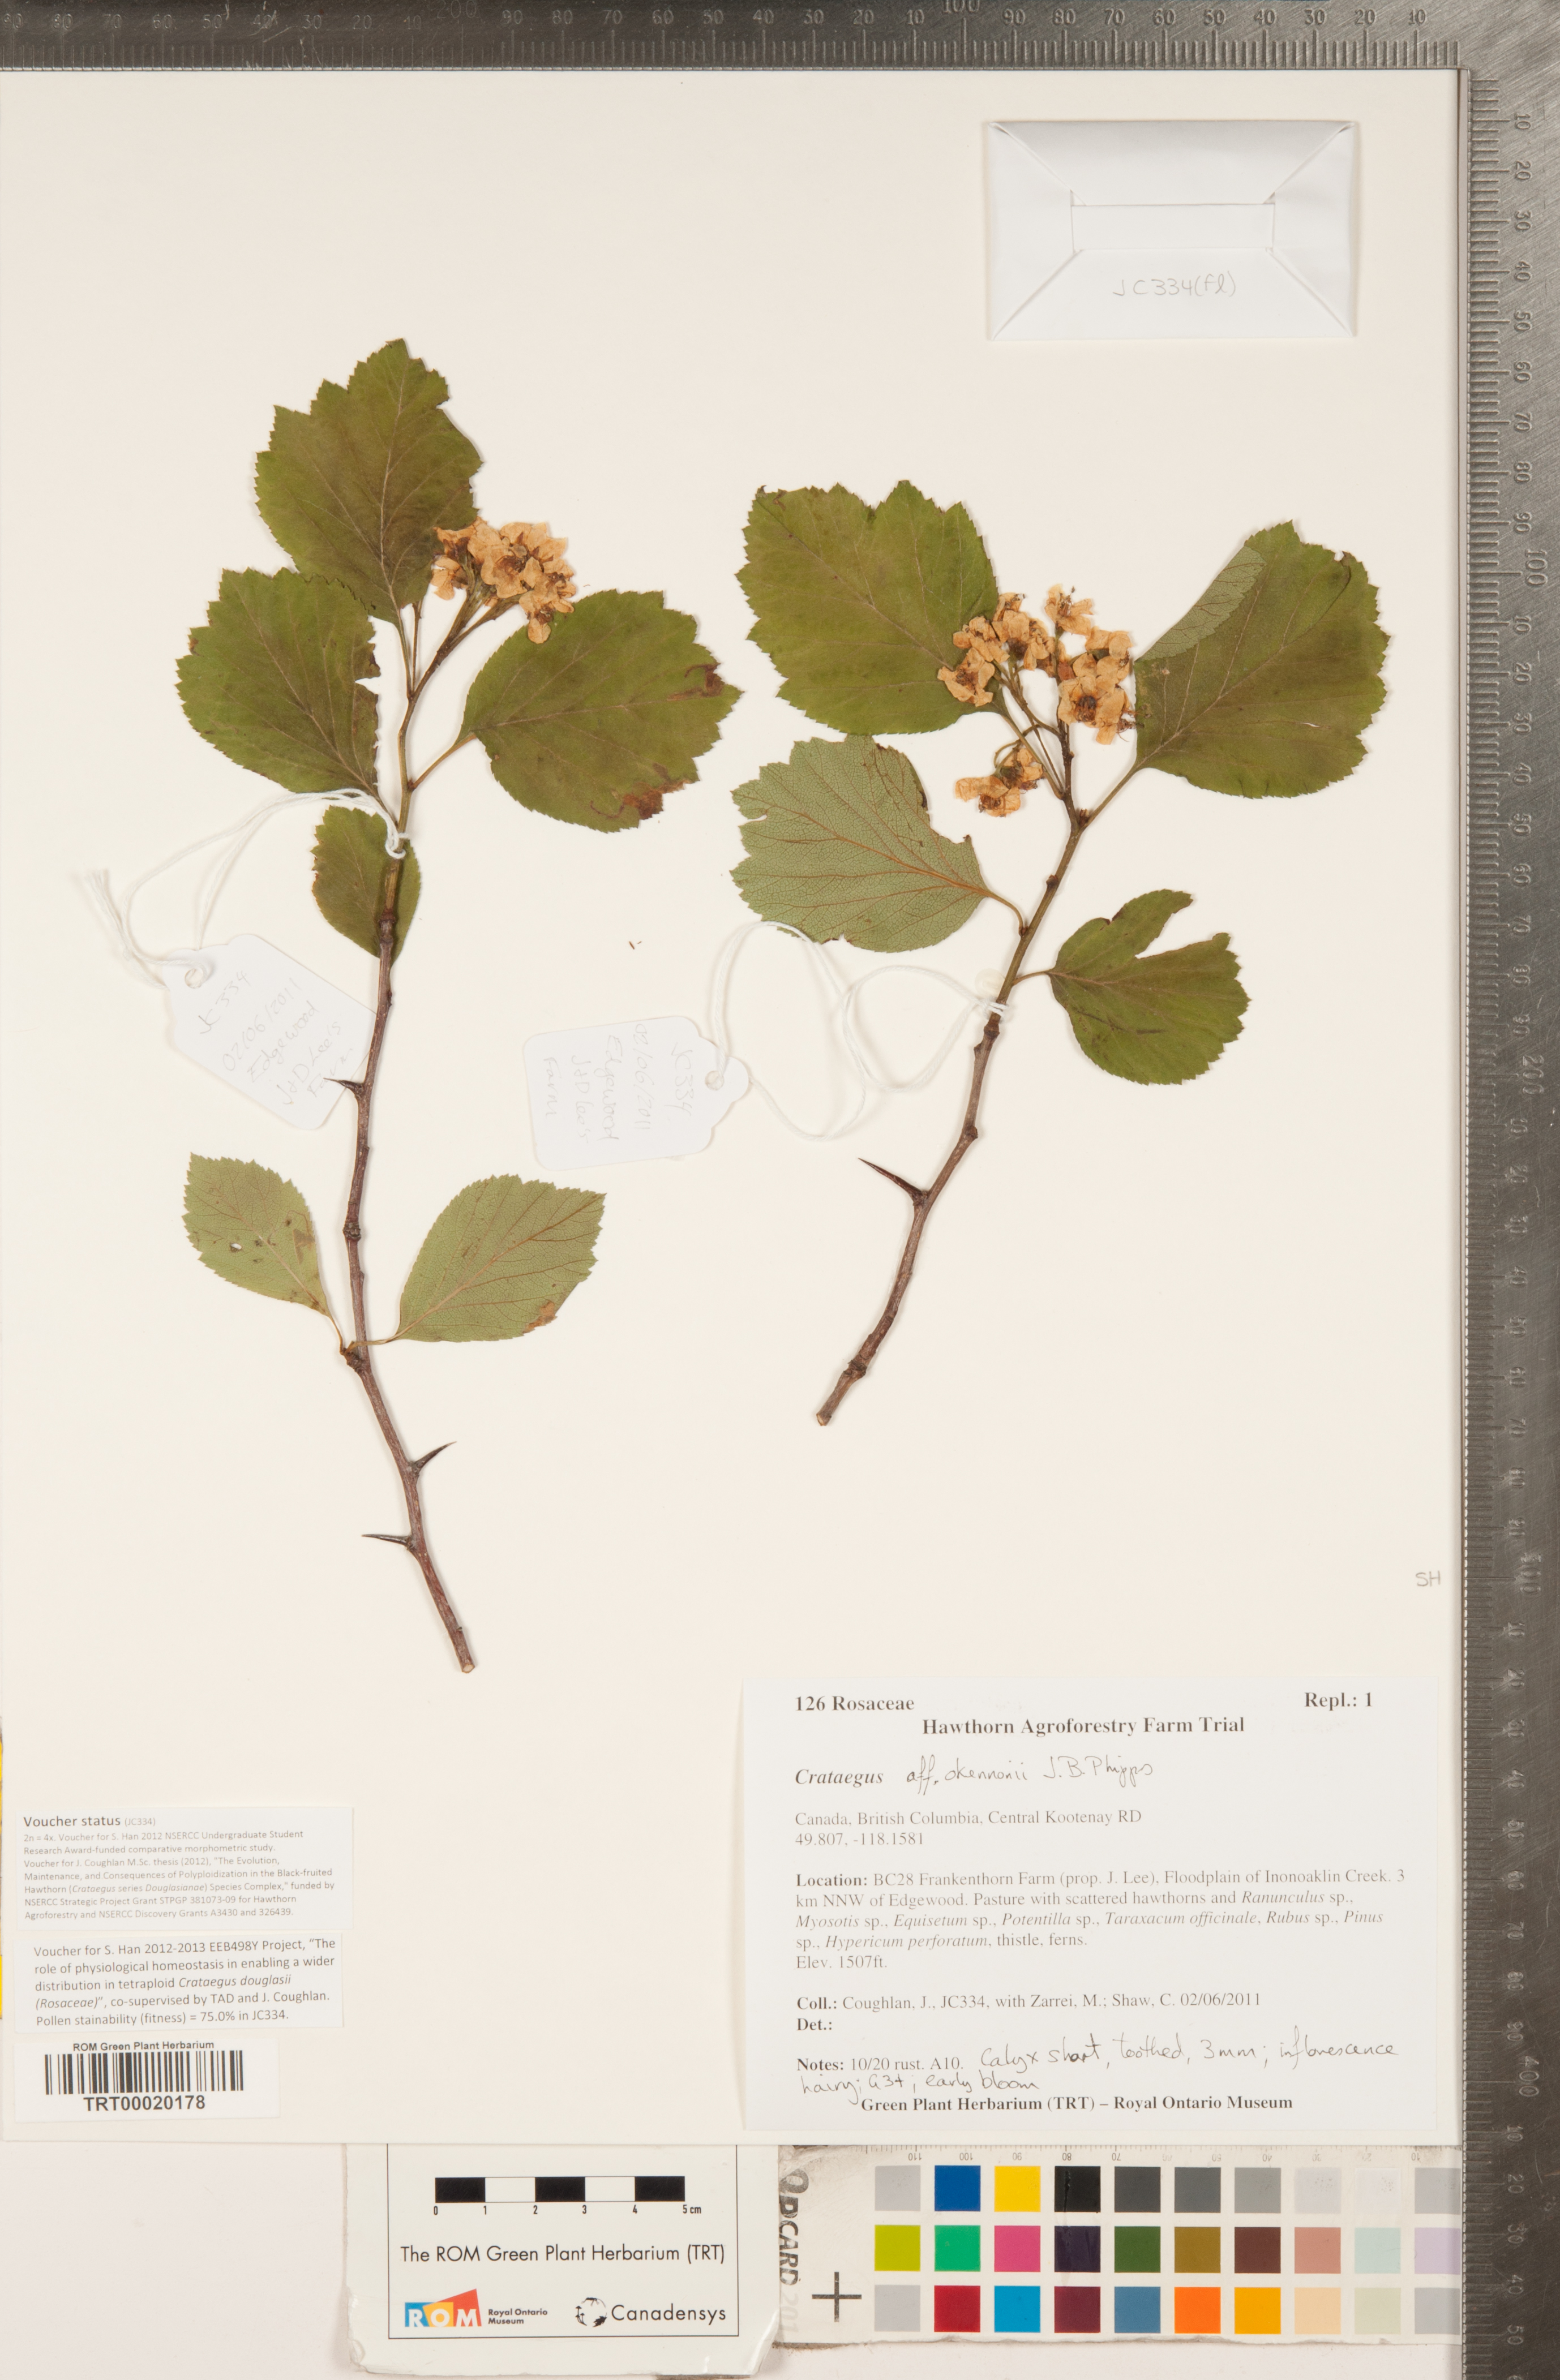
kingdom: Plantae
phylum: Tracheophyta
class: Magnoliopsida
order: Rosales
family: Rosaceae
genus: Crataegus
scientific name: Crataegus okennonii
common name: O'kennon's hawthorn
